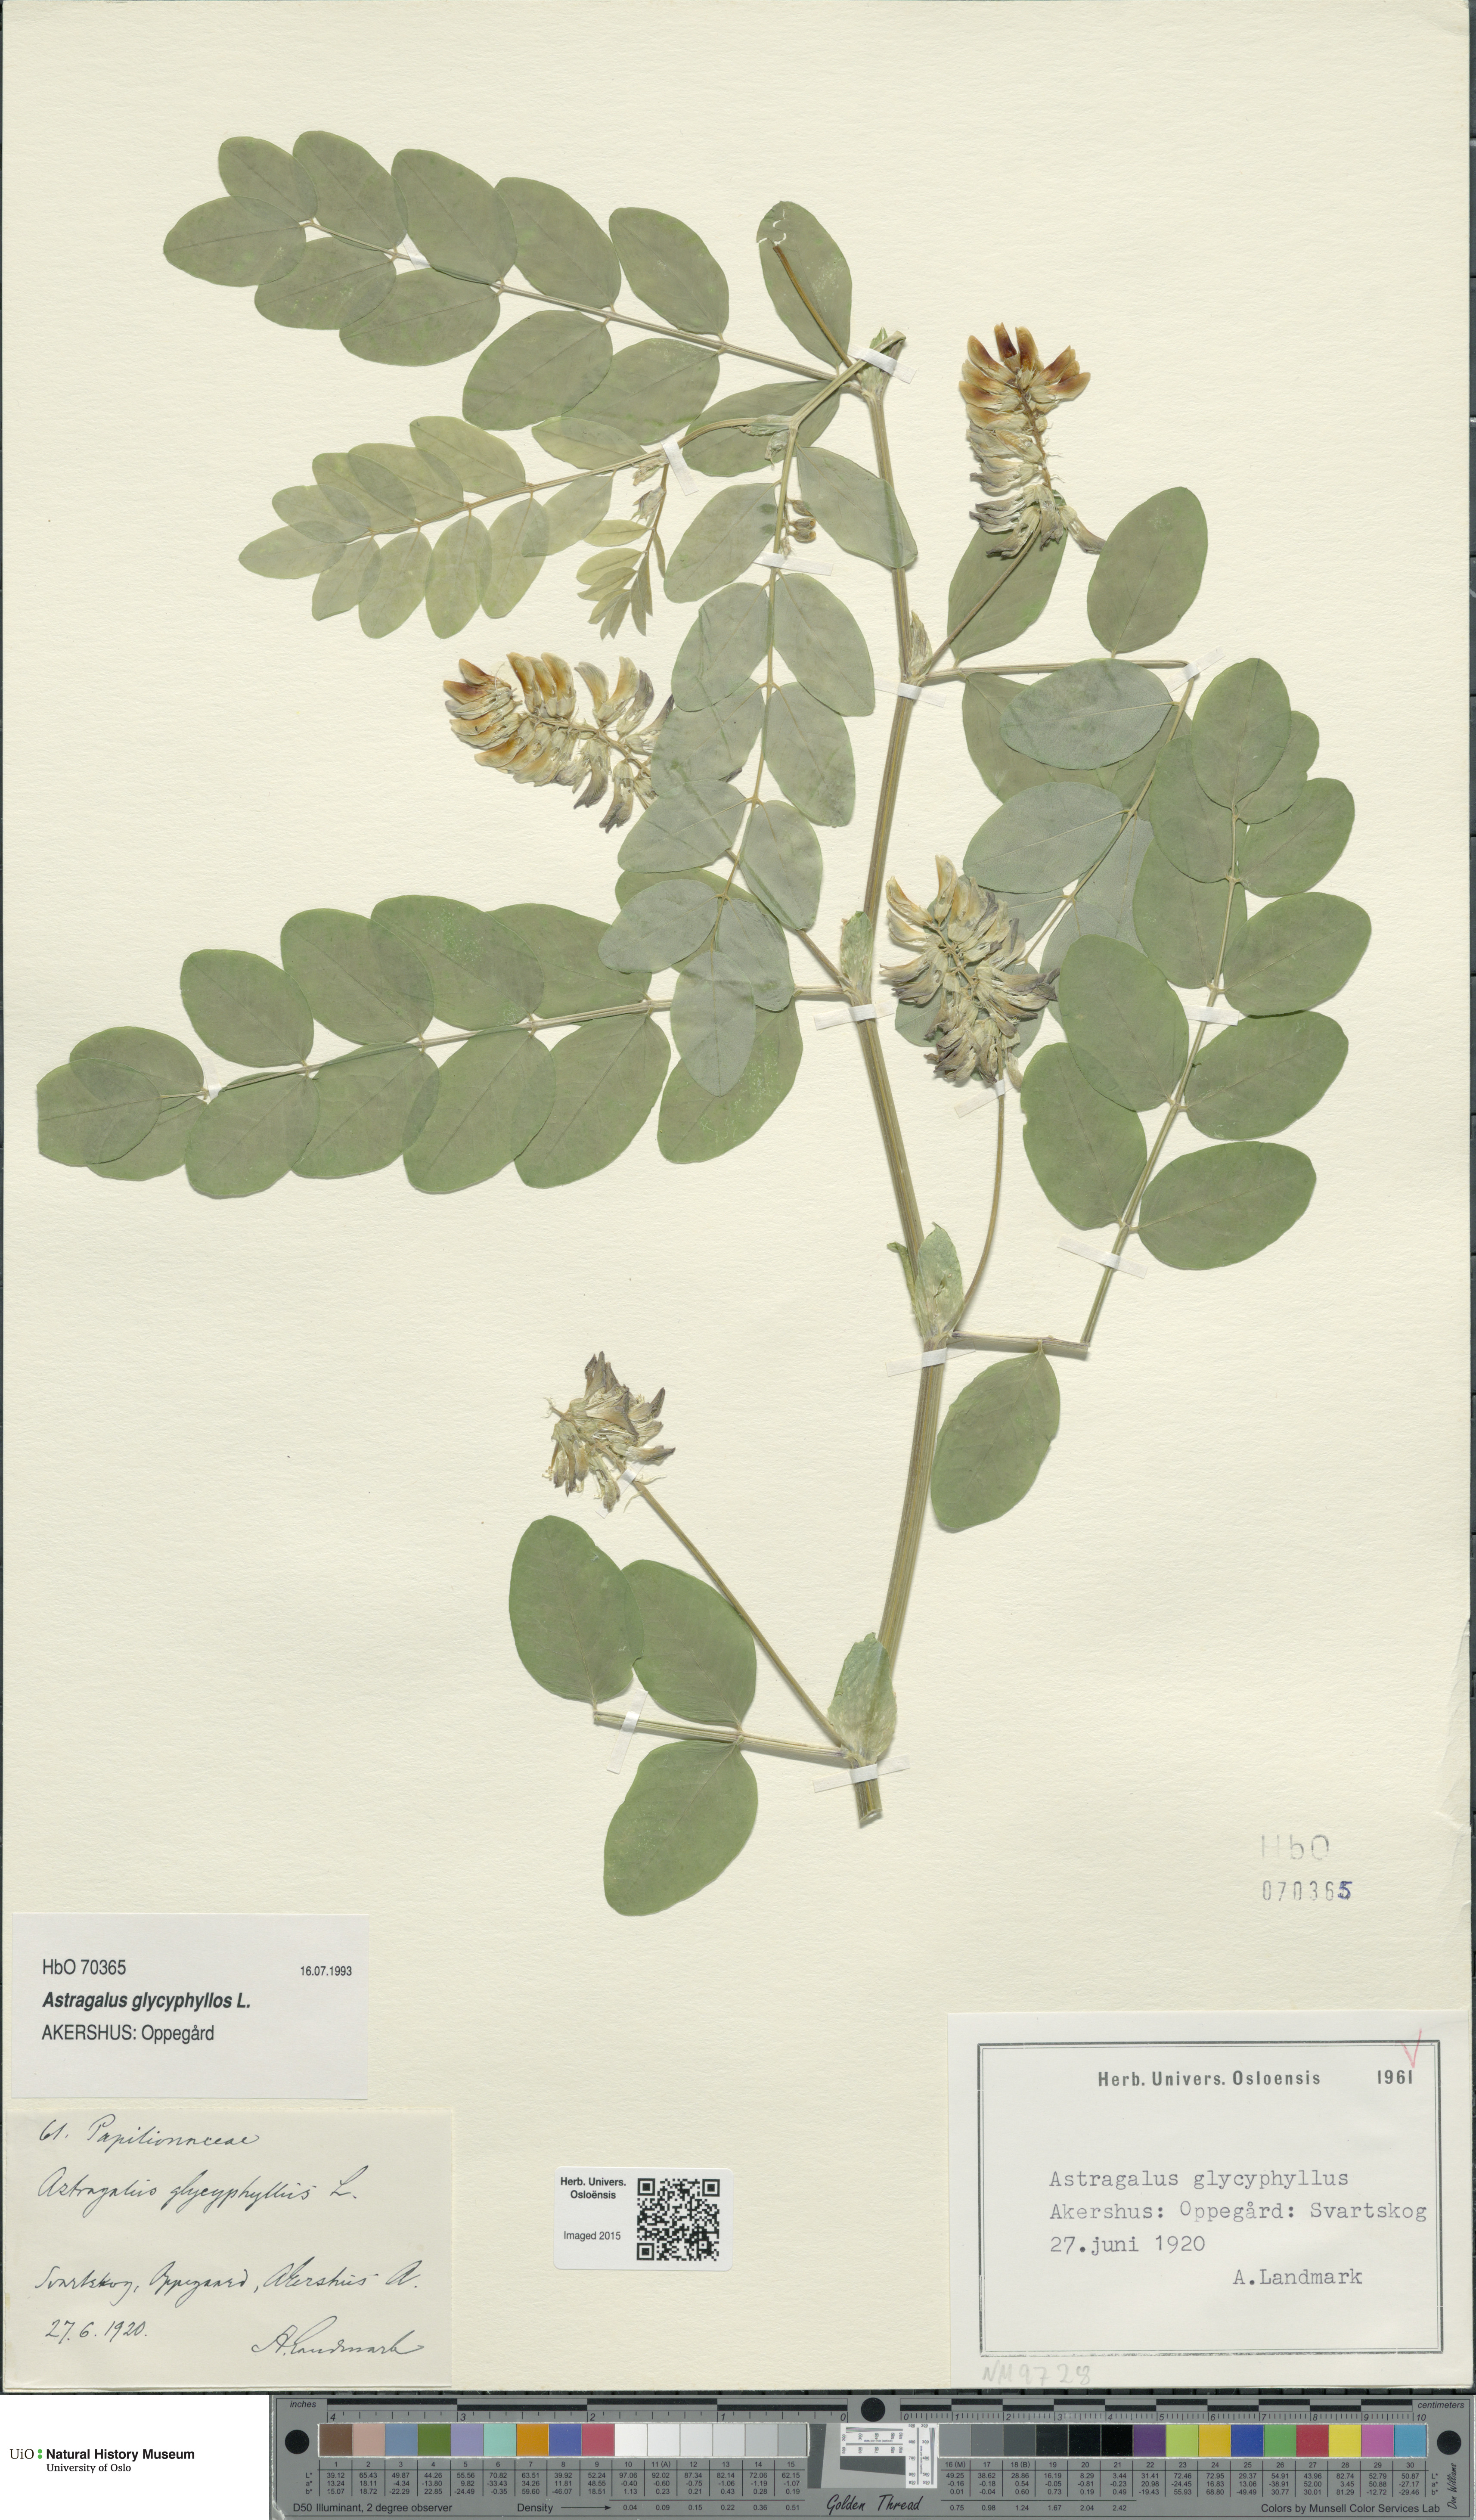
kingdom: Plantae
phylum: Tracheophyta
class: Magnoliopsida
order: Fabales
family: Fabaceae
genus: Astragalus
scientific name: Astragalus glycyphyllos
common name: Wild liquorice
